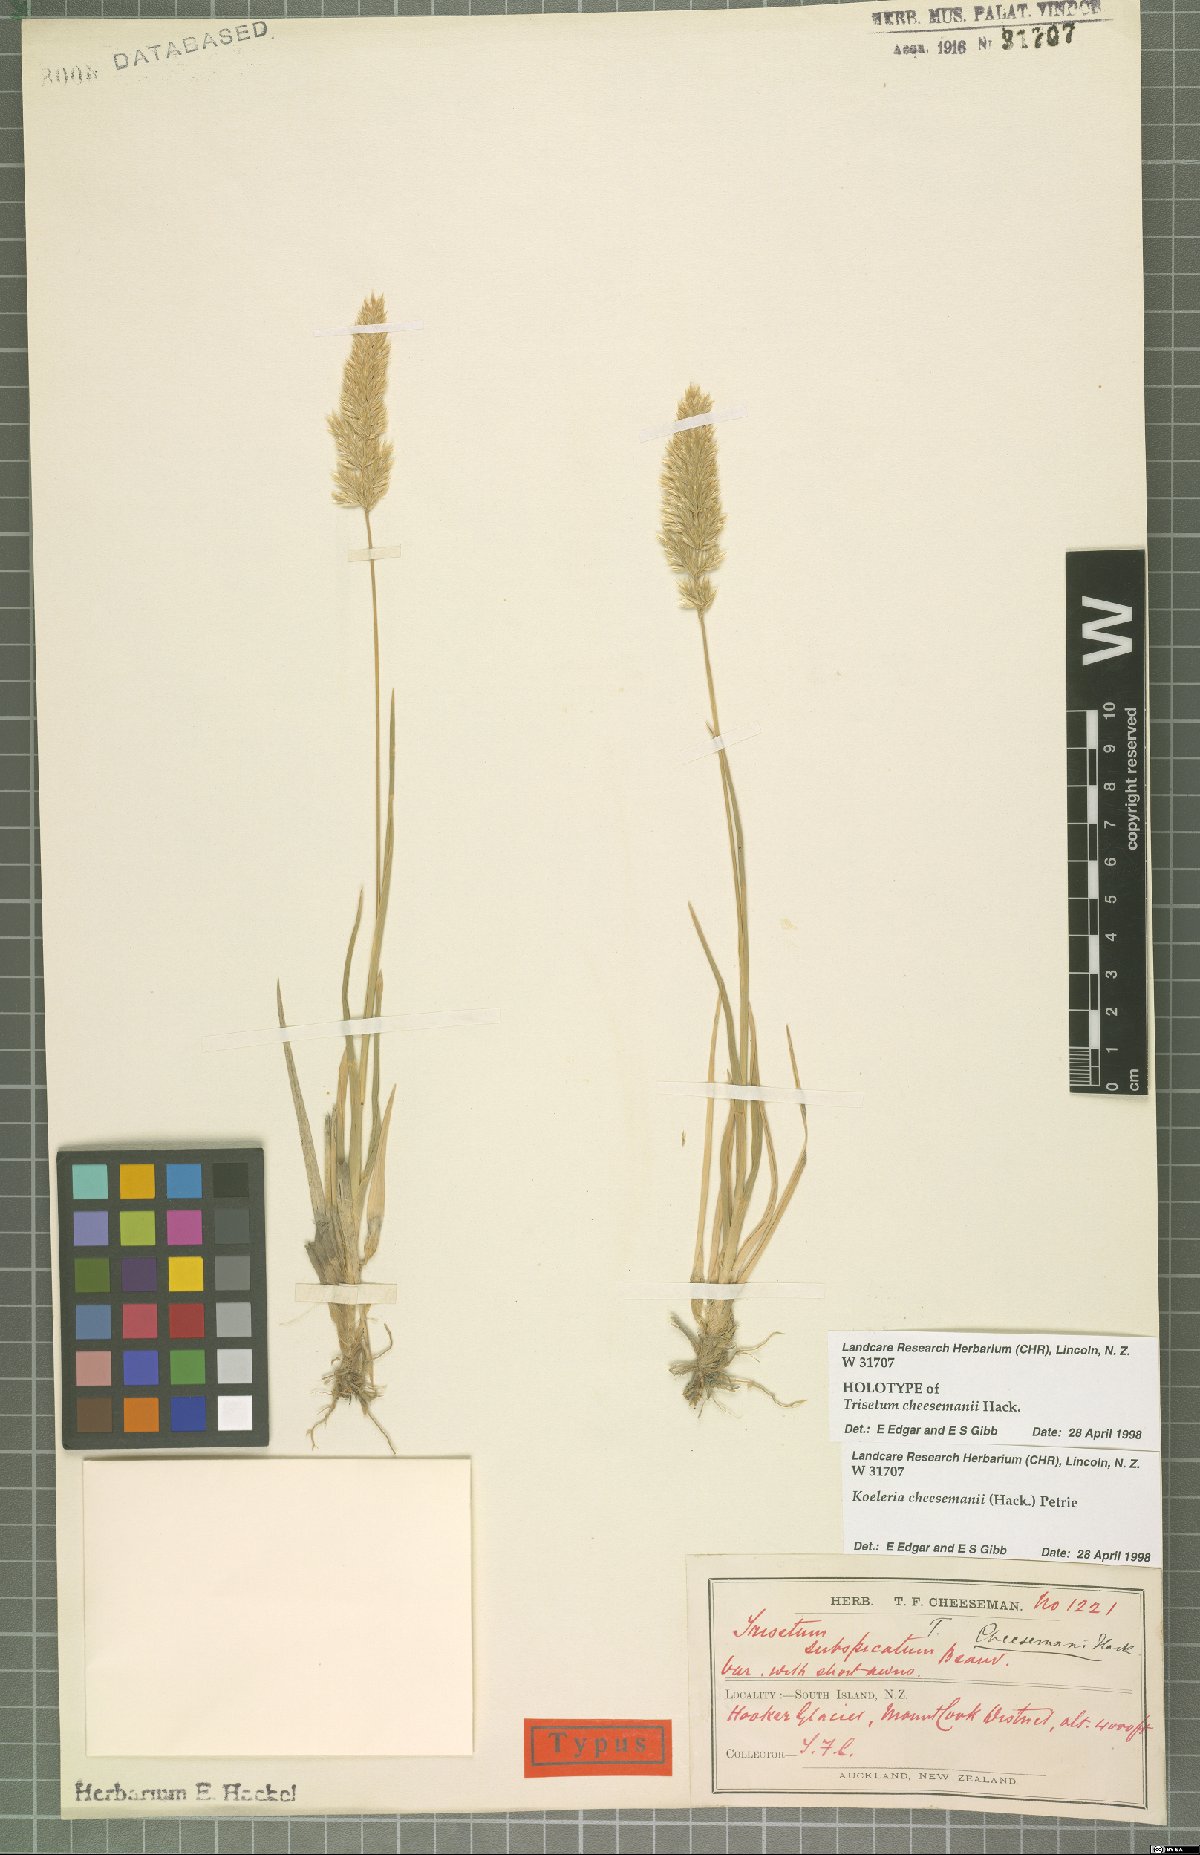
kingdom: Plantae
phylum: Tracheophyta
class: Liliopsida
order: Poales
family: Poaceae
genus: Koeleria
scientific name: Koeleria cheesemanii
